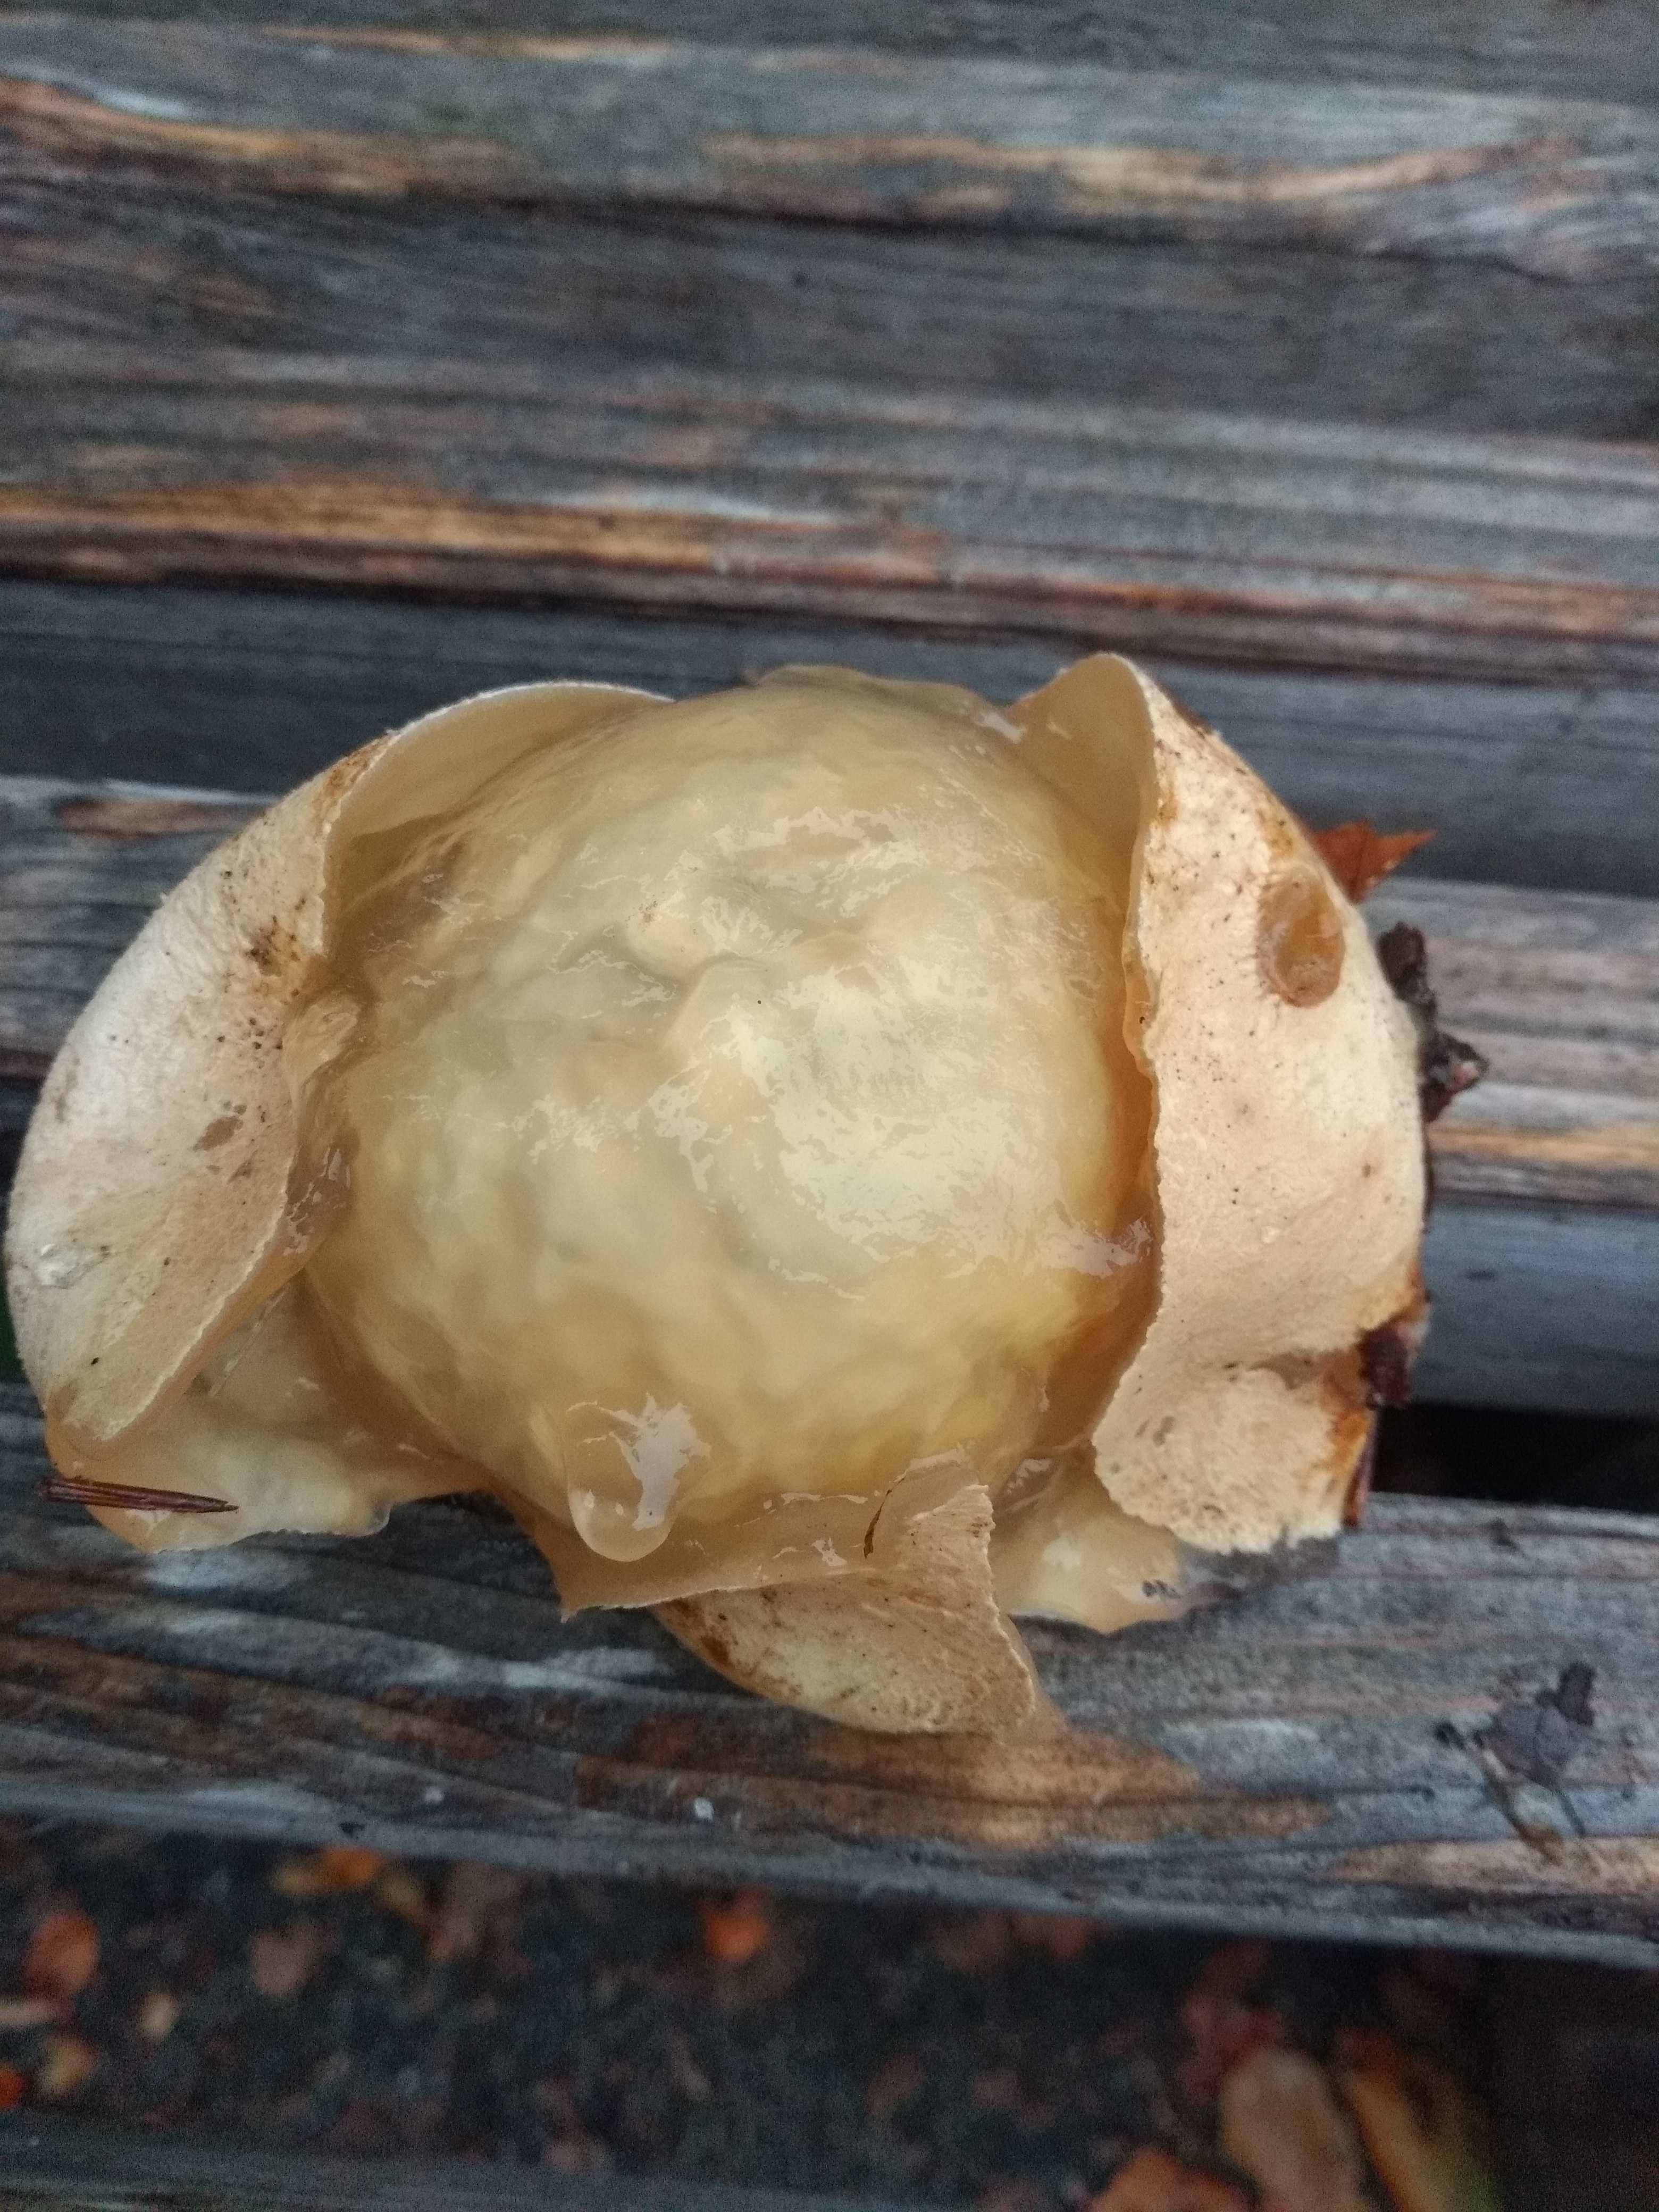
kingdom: Fungi
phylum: Basidiomycota
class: Agaricomycetes
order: Phallales
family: Phallaceae
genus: Phallus
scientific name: Phallus impudicus
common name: almindelig stinksvamp
